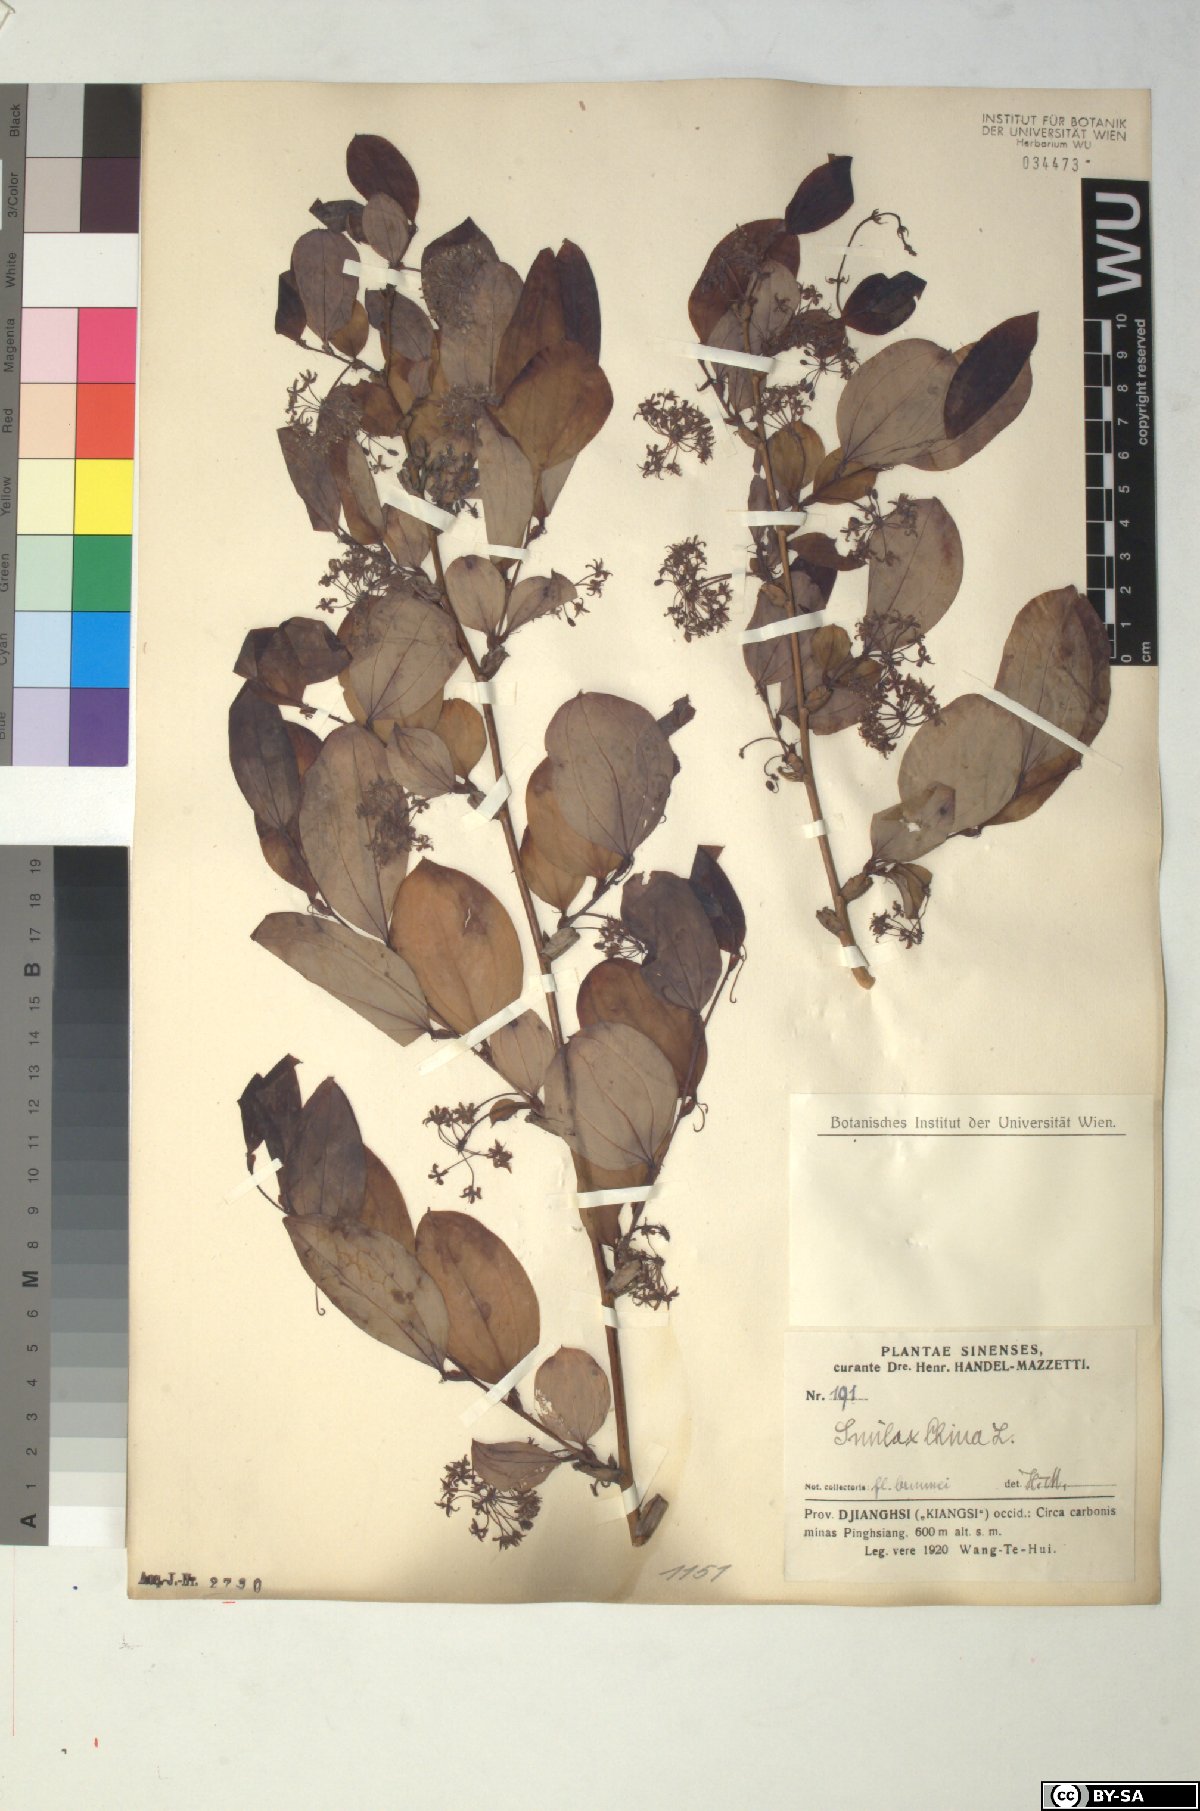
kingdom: Plantae
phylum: Tracheophyta
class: Liliopsida
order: Liliales
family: Smilacaceae
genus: Smilax
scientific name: Smilax china
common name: Chinaroot
